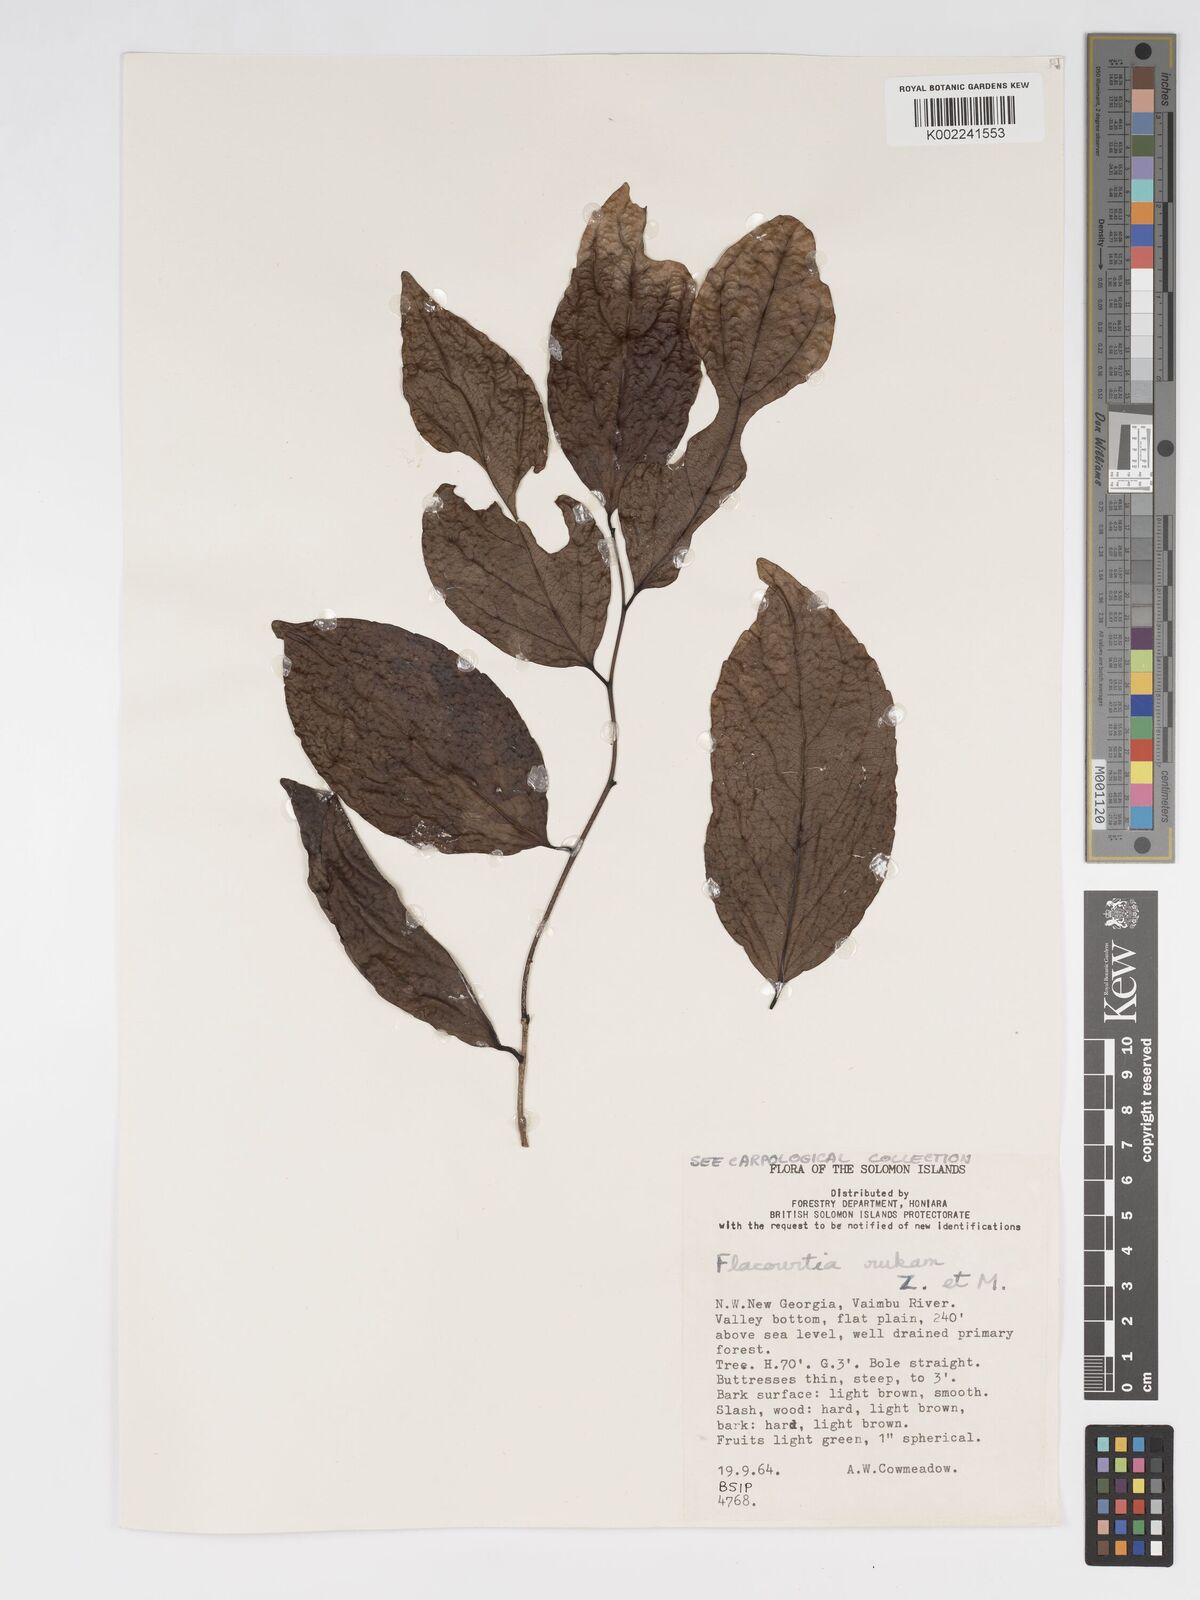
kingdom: Plantae
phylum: Tracheophyta
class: Magnoliopsida
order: Malpighiales
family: Salicaceae
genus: Flacourtia
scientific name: Flacourtia rukam
